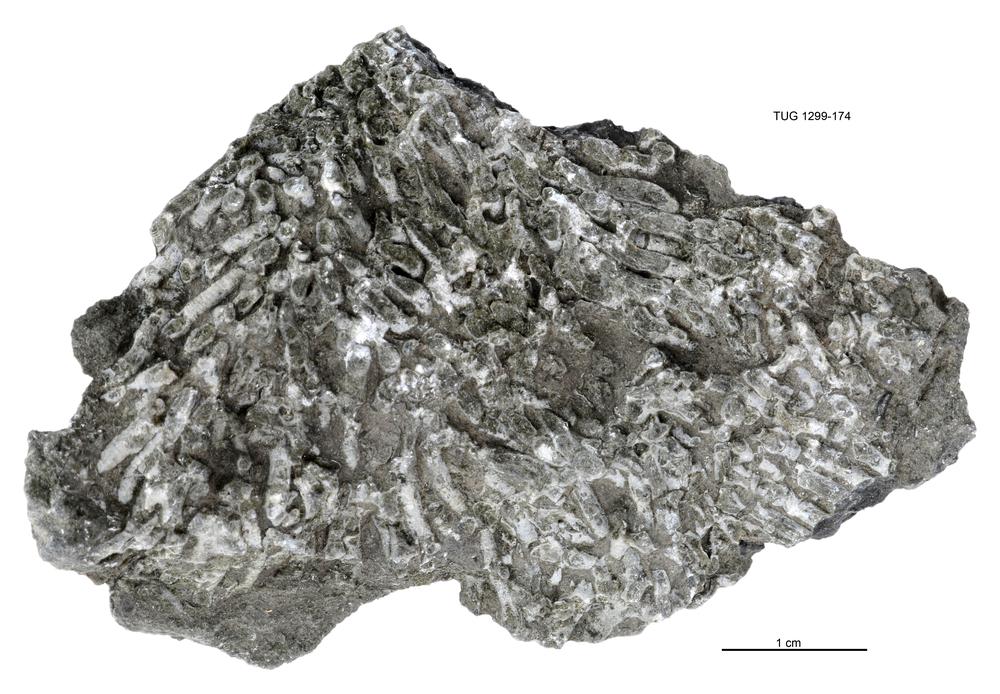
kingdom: Animalia
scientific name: Animalia
